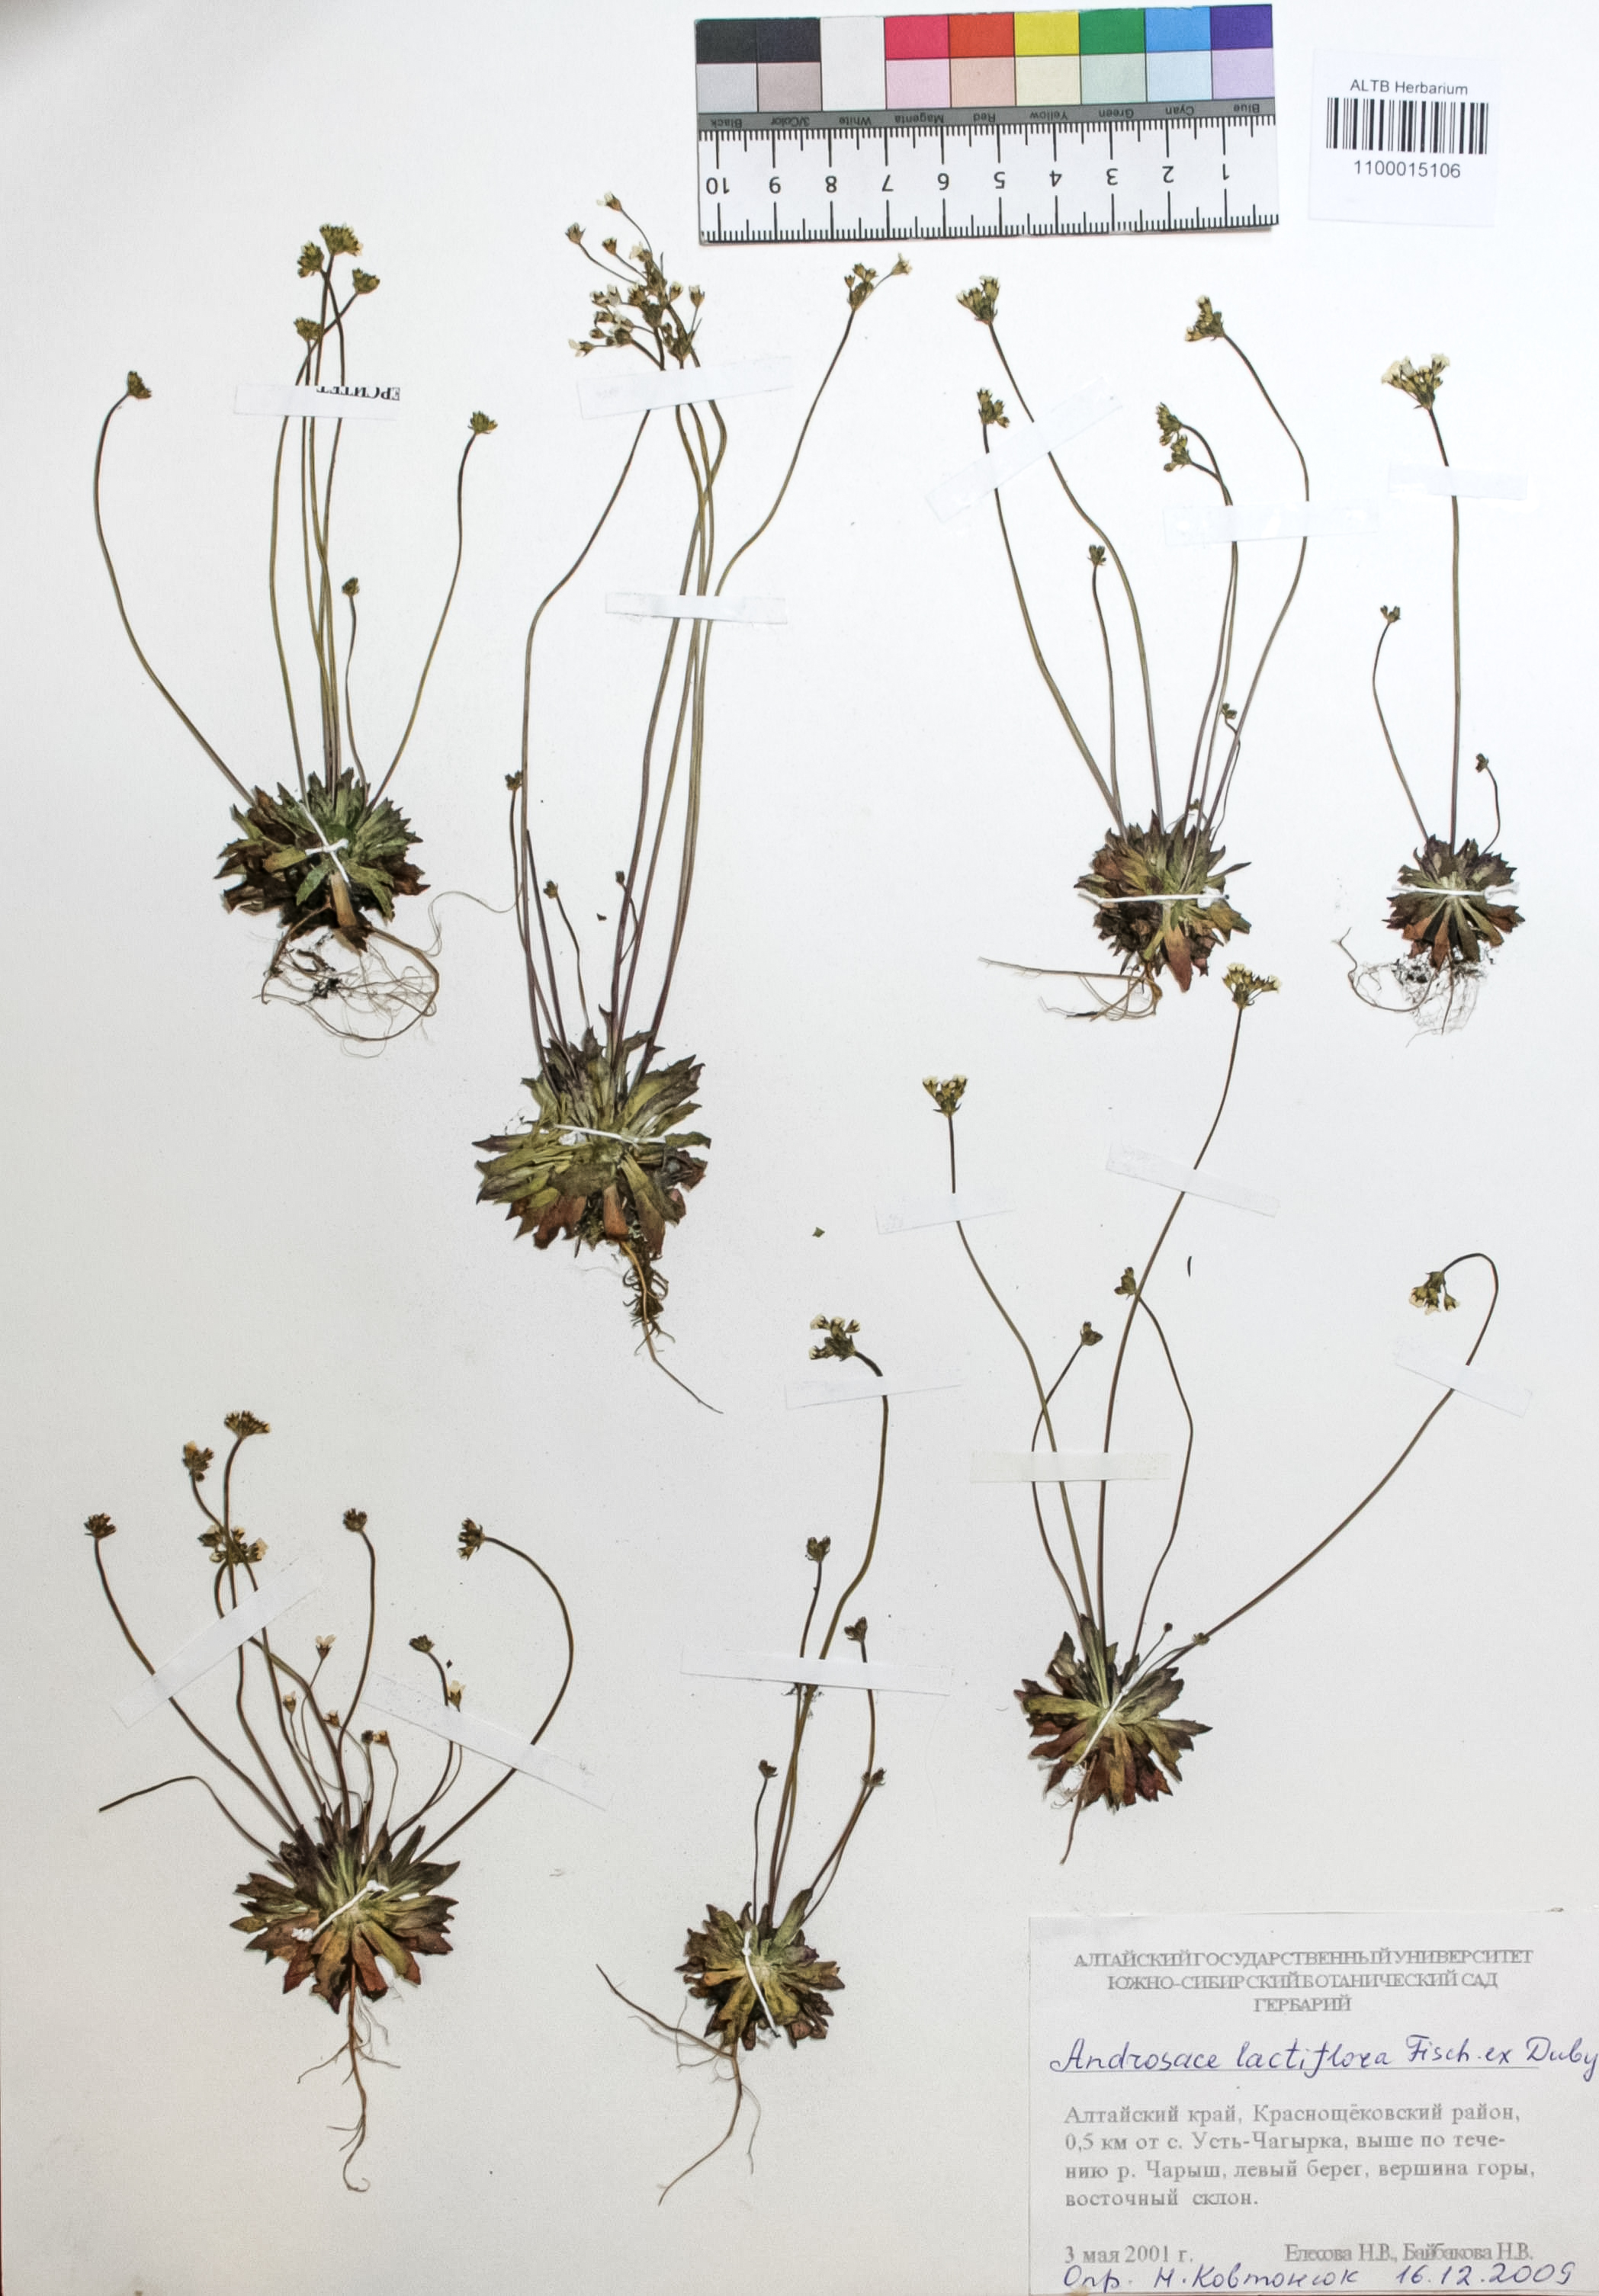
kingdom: Plantae
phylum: Tracheophyta
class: Magnoliopsida
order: Ericales
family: Primulaceae
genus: Androsace
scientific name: Androsace lactiflora
